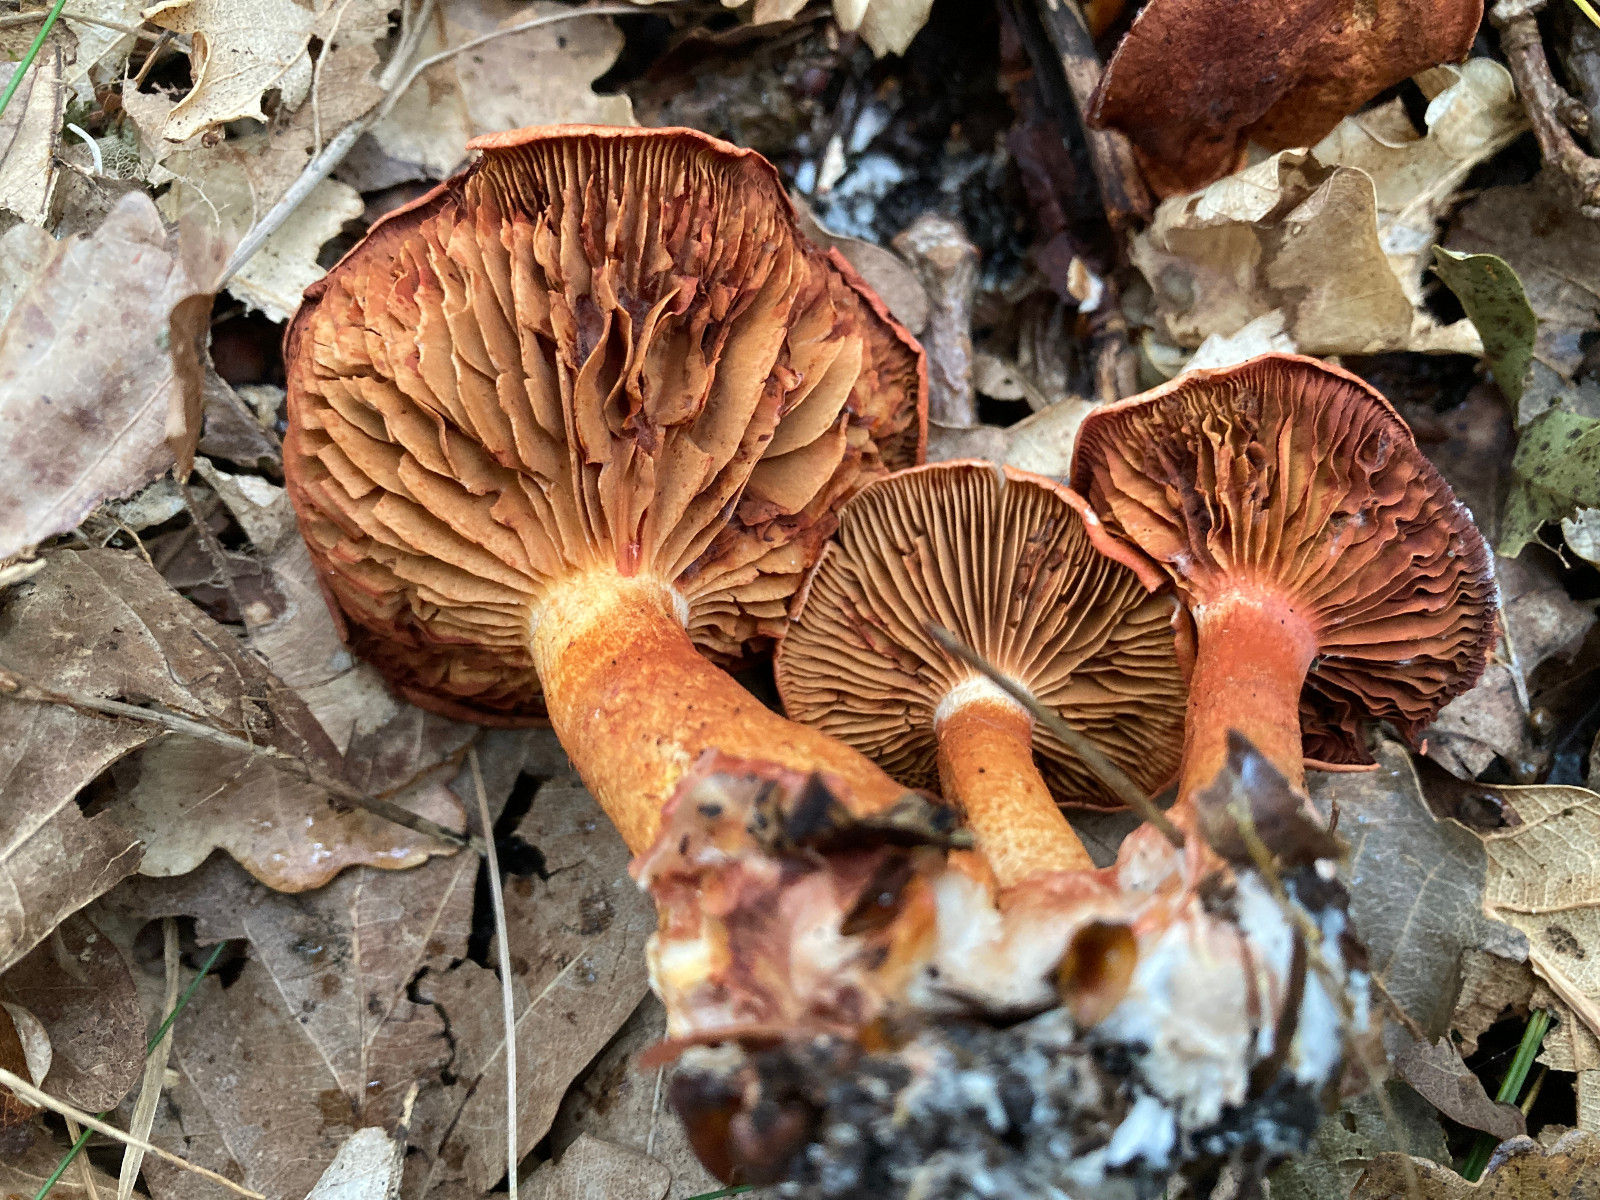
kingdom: Fungi
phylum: Basidiomycota
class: Agaricomycetes
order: Agaricales
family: Cortinariaceae
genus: Cortinarius
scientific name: Cortinarius bolaris
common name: cinnoberskællet slørhat
